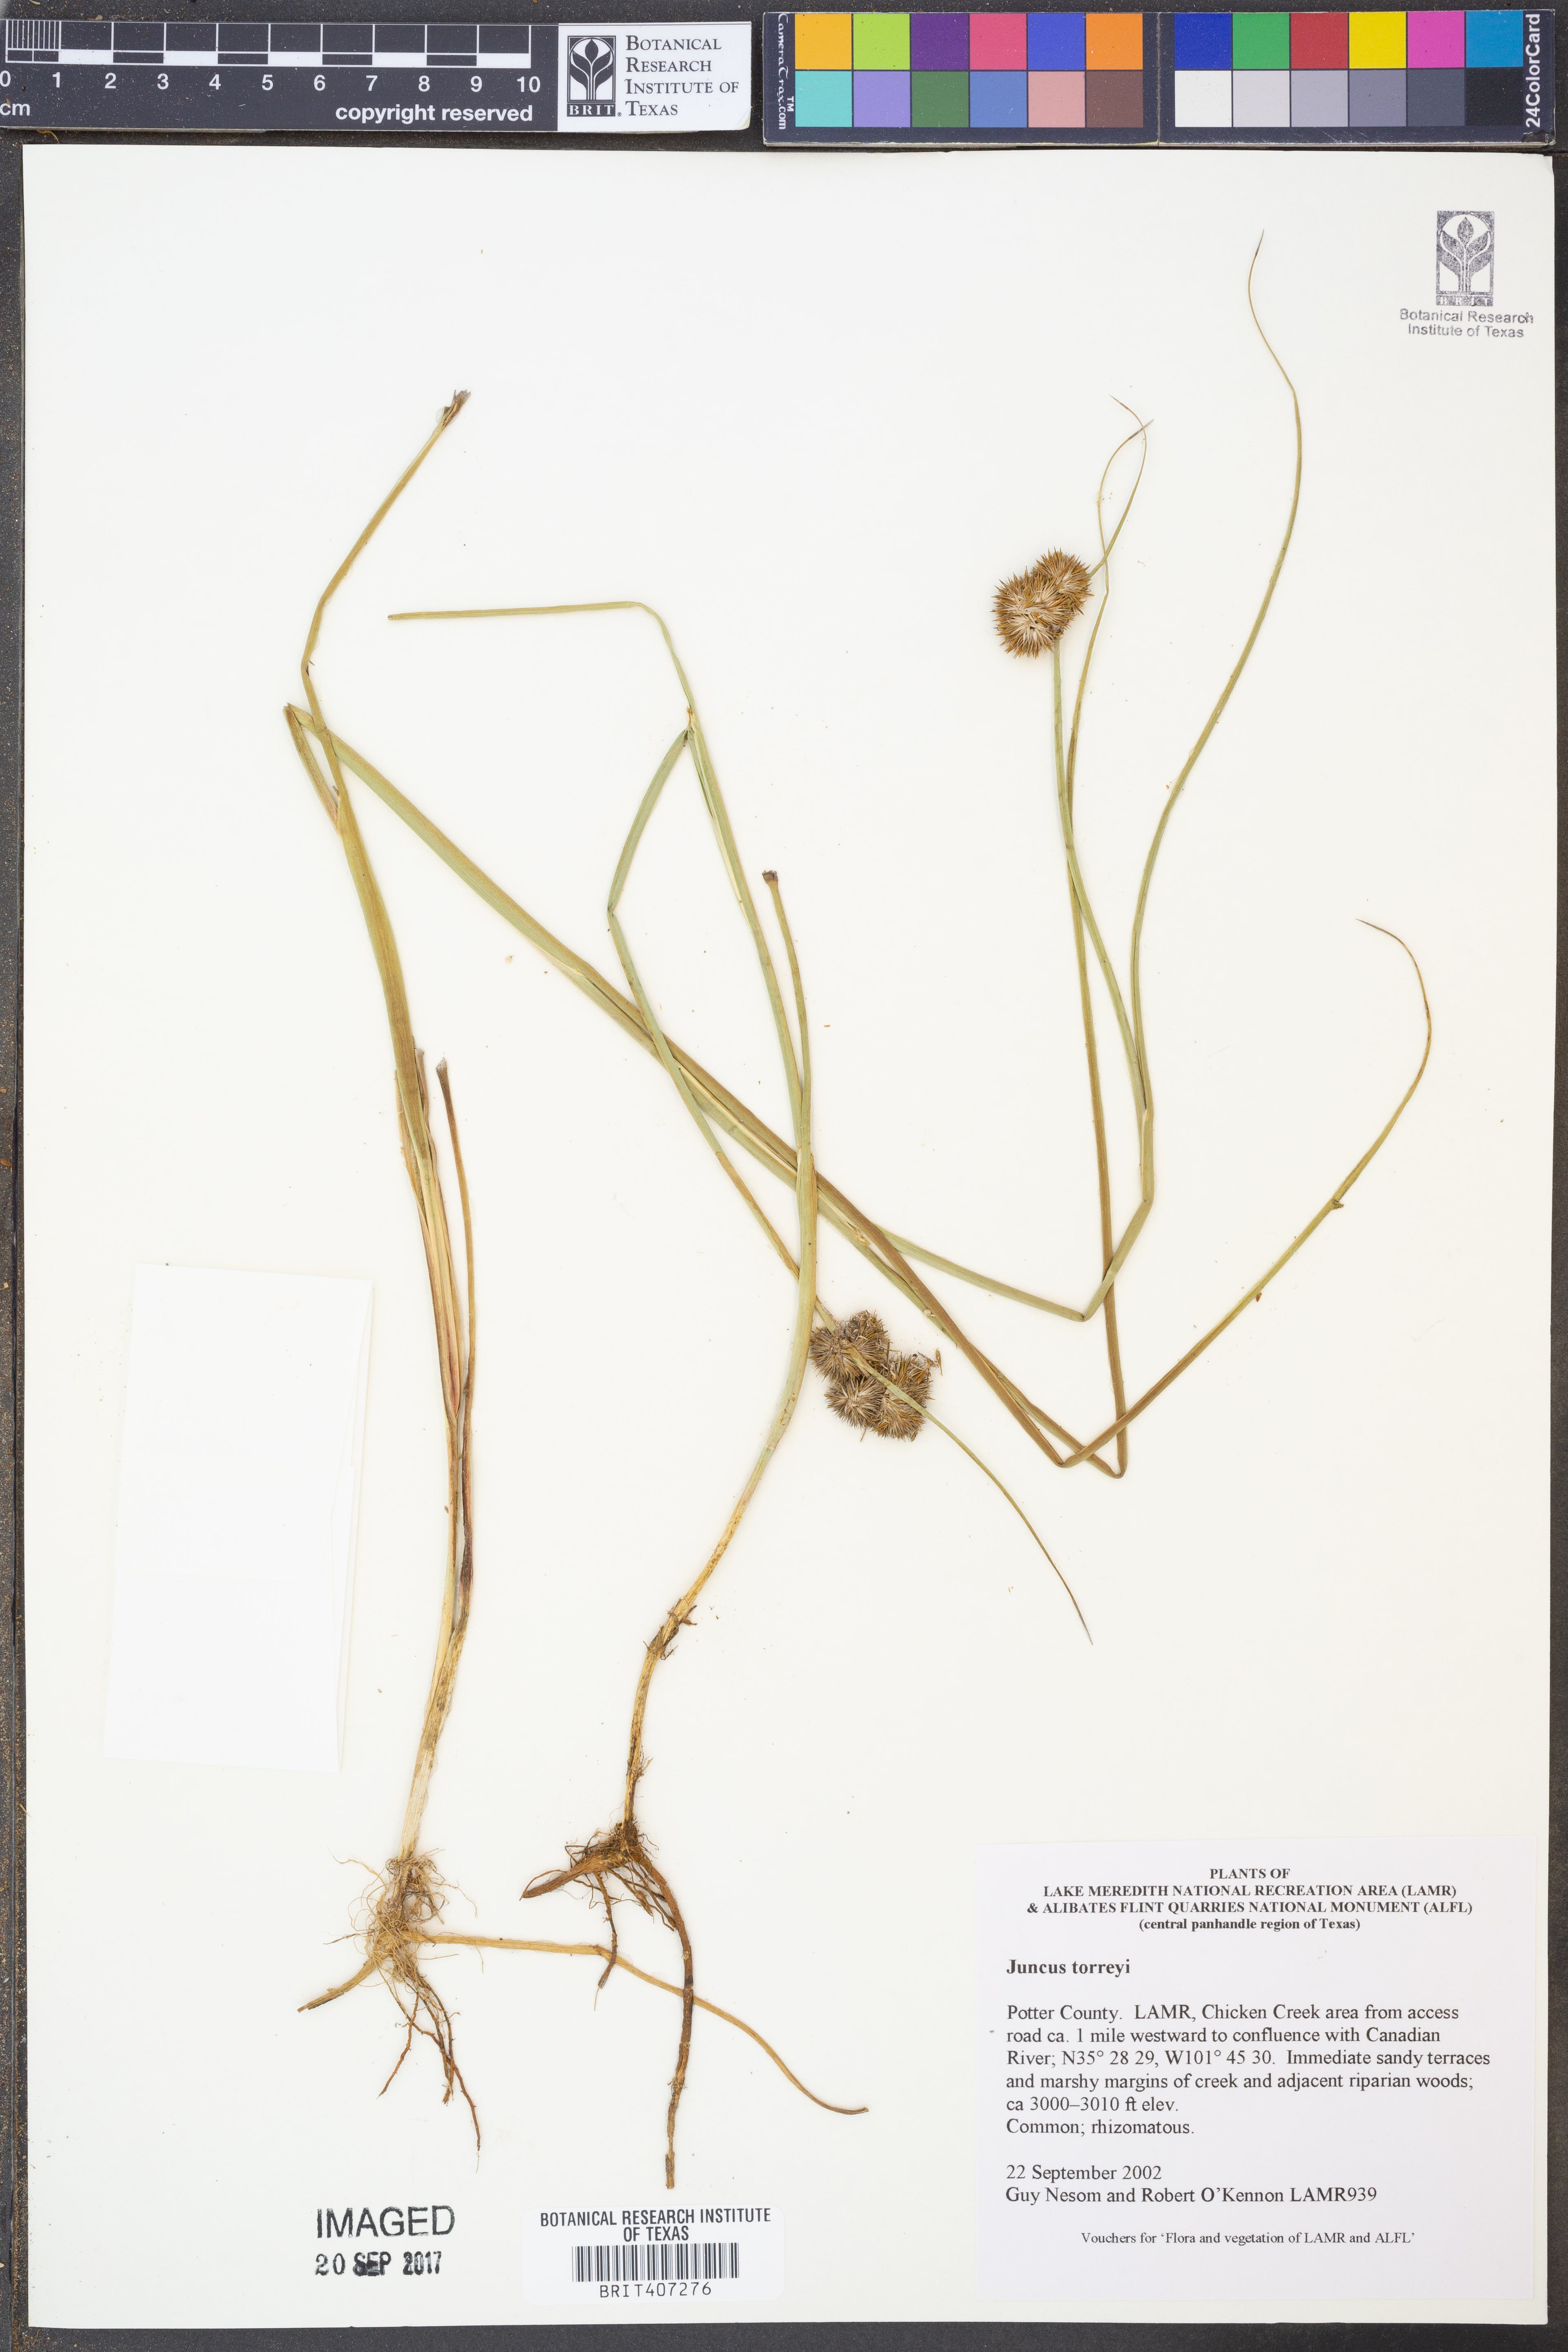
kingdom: Plantae
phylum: Tracheophyta
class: Liliopsida
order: Poales
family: Juncaceae
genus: Juncus
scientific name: Juncus torreyi
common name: Torrey's rush
